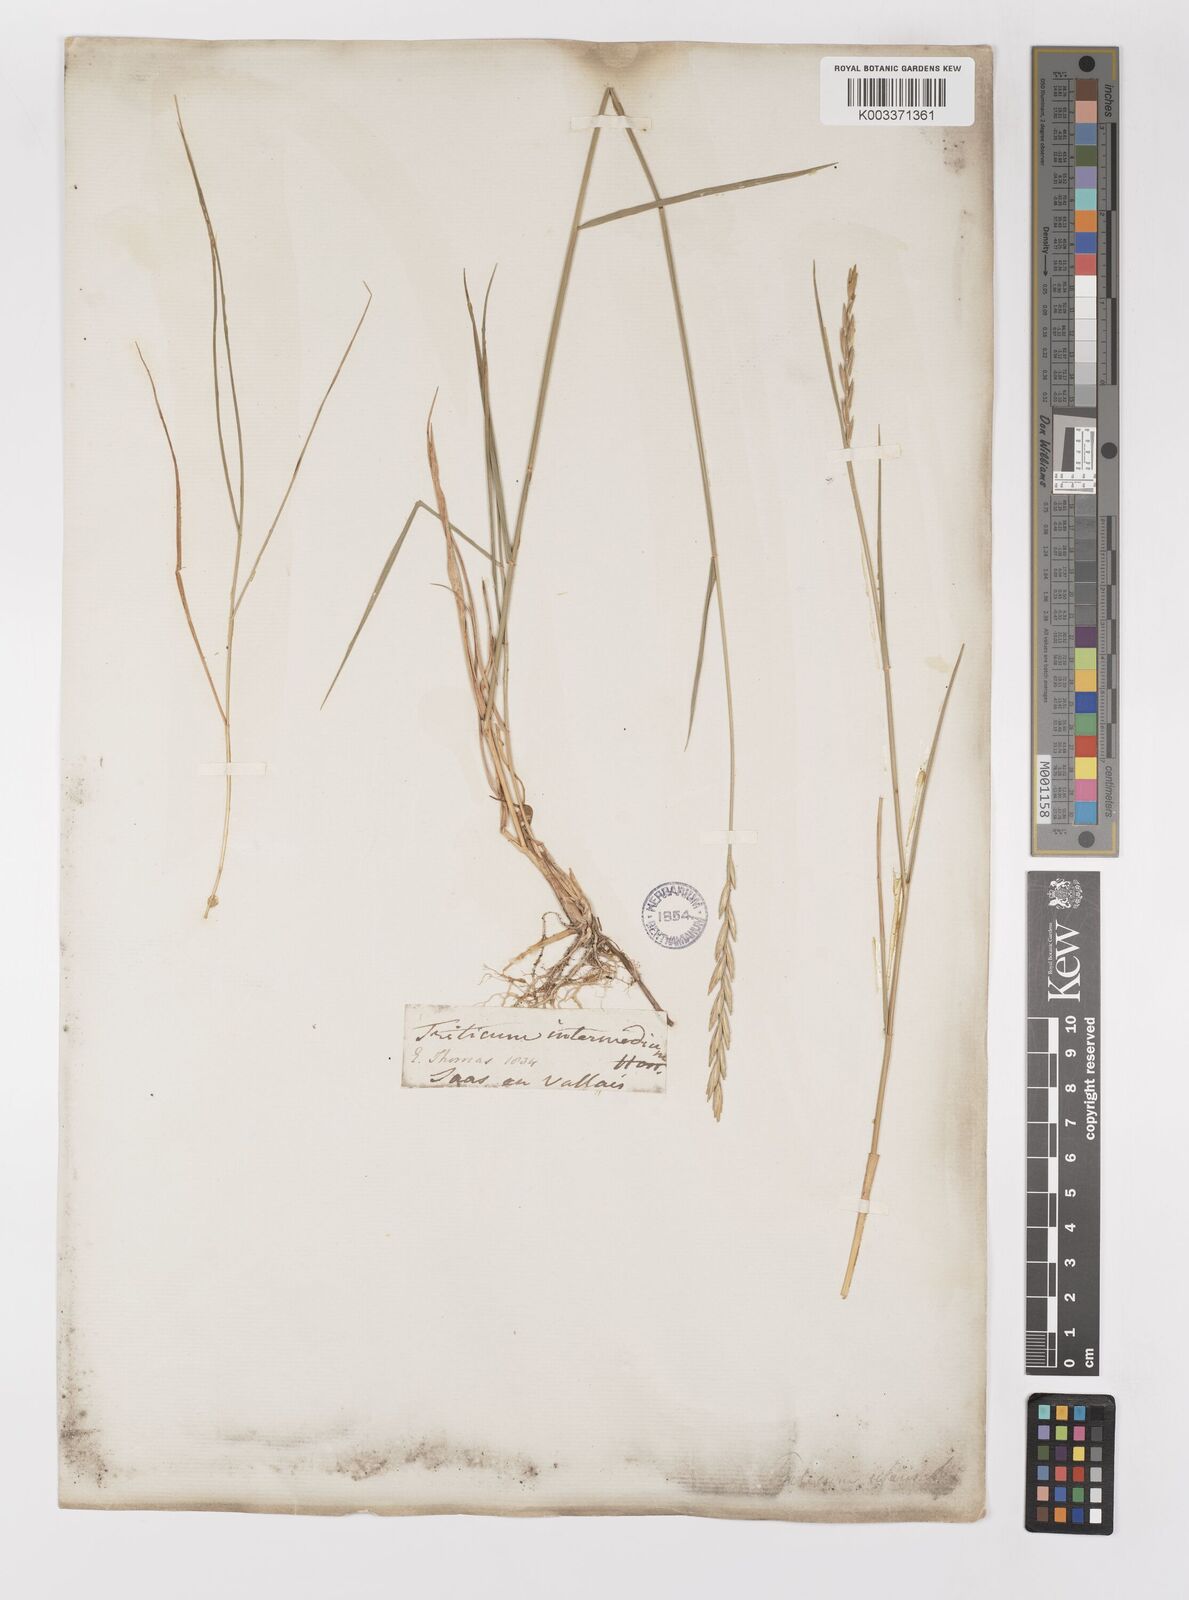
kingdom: Plantae
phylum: Tracheophyta
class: Liliopsida
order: Poales
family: Poaceae
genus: Elymus
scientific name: Elymus repens
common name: Quackgrass
